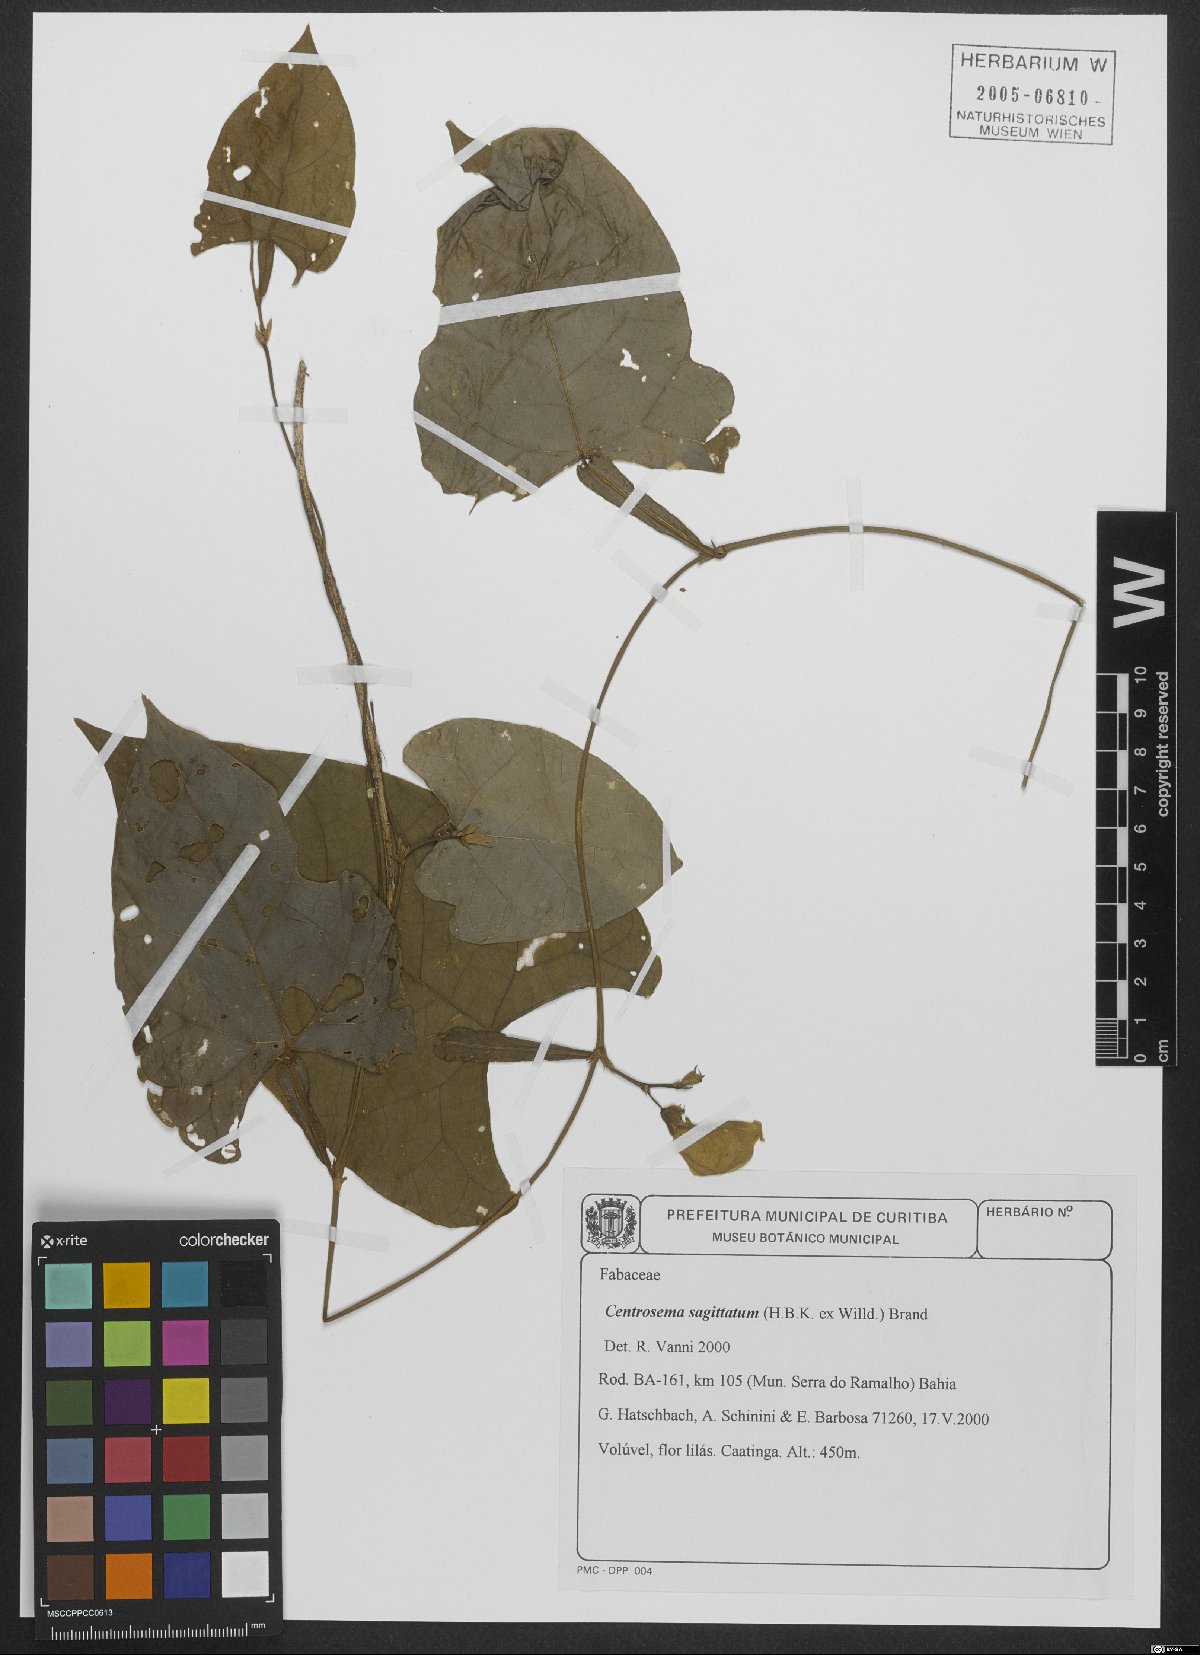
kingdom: Plantae
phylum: Tracheophyta
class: Magnoliopsida
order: Fabales
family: Fabaceae
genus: Centrosema
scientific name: Centrosema sagittatum
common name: Arrowleaf butterfly pea
